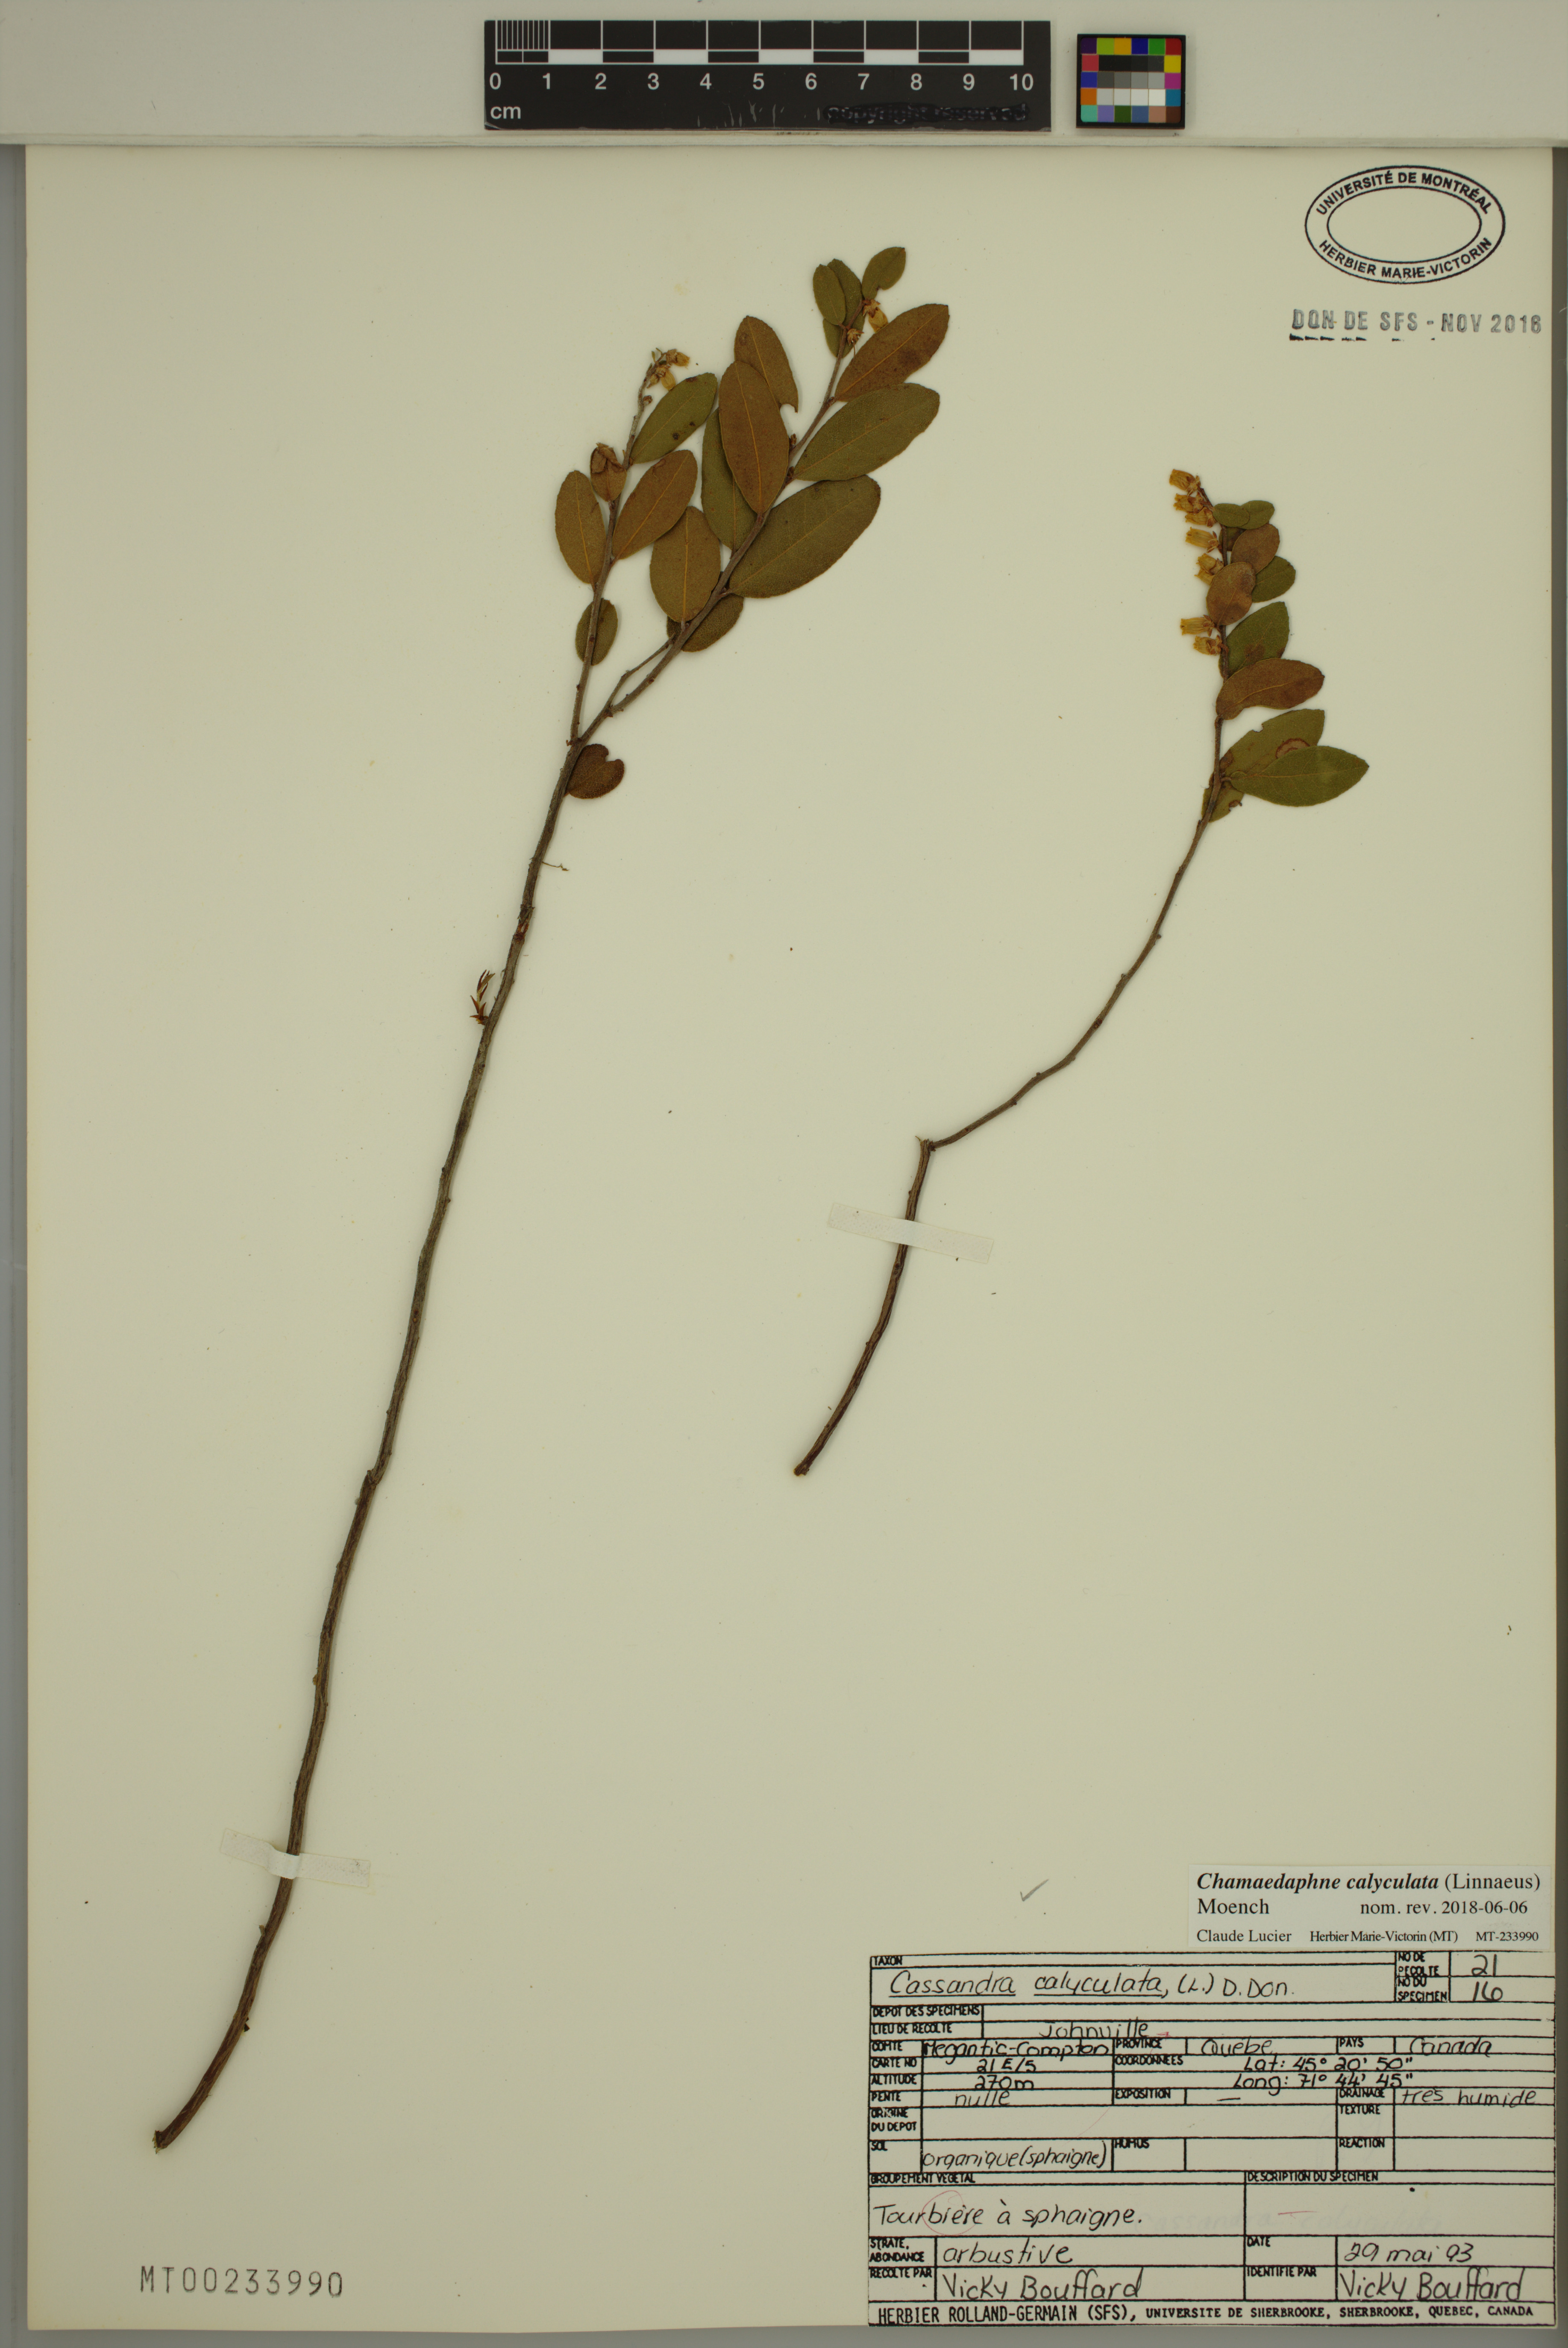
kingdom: Plantae
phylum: Tracheophyta
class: Magnoliopsida
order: Ericales
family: Ericaceae
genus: Chamaedaphne
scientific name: Chamaedaphne calyculata
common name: Leatherleaf
